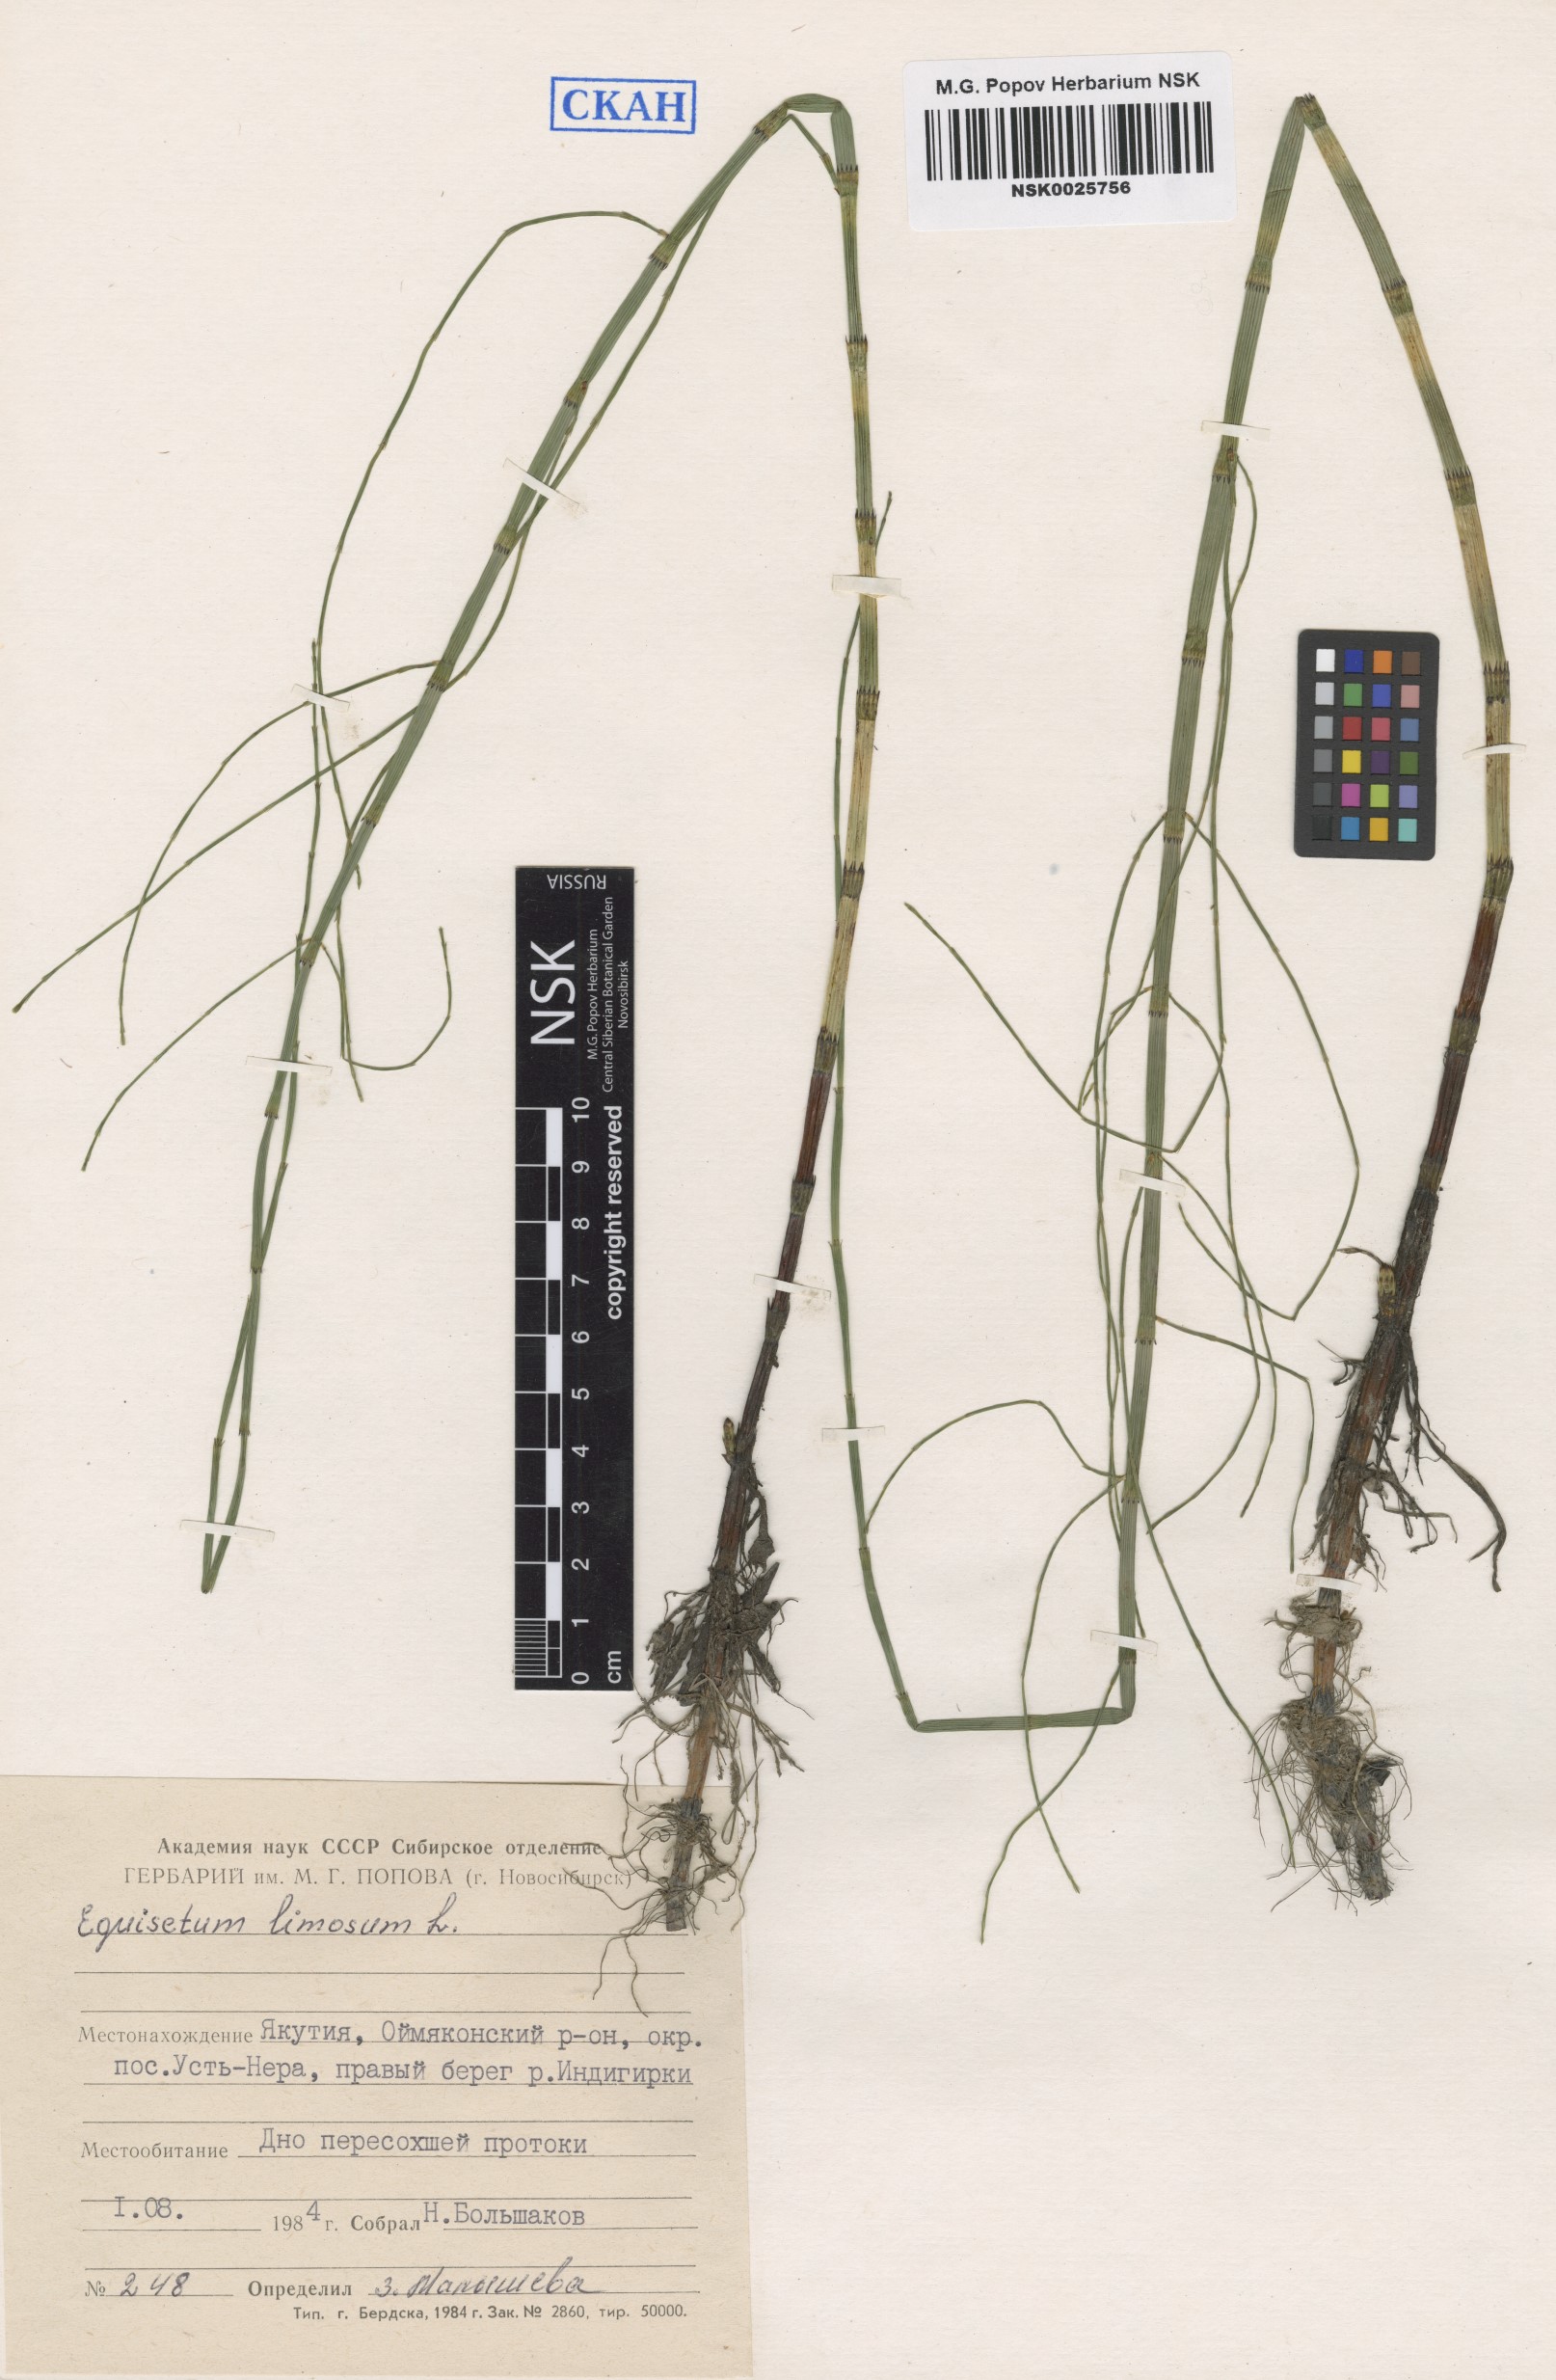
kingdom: Plantae
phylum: Tracheophyta
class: Polypodiopsida
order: Equisetales
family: Equisetaceae
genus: Equisetum
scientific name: Equisetum fluviatile
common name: Water horsetail
